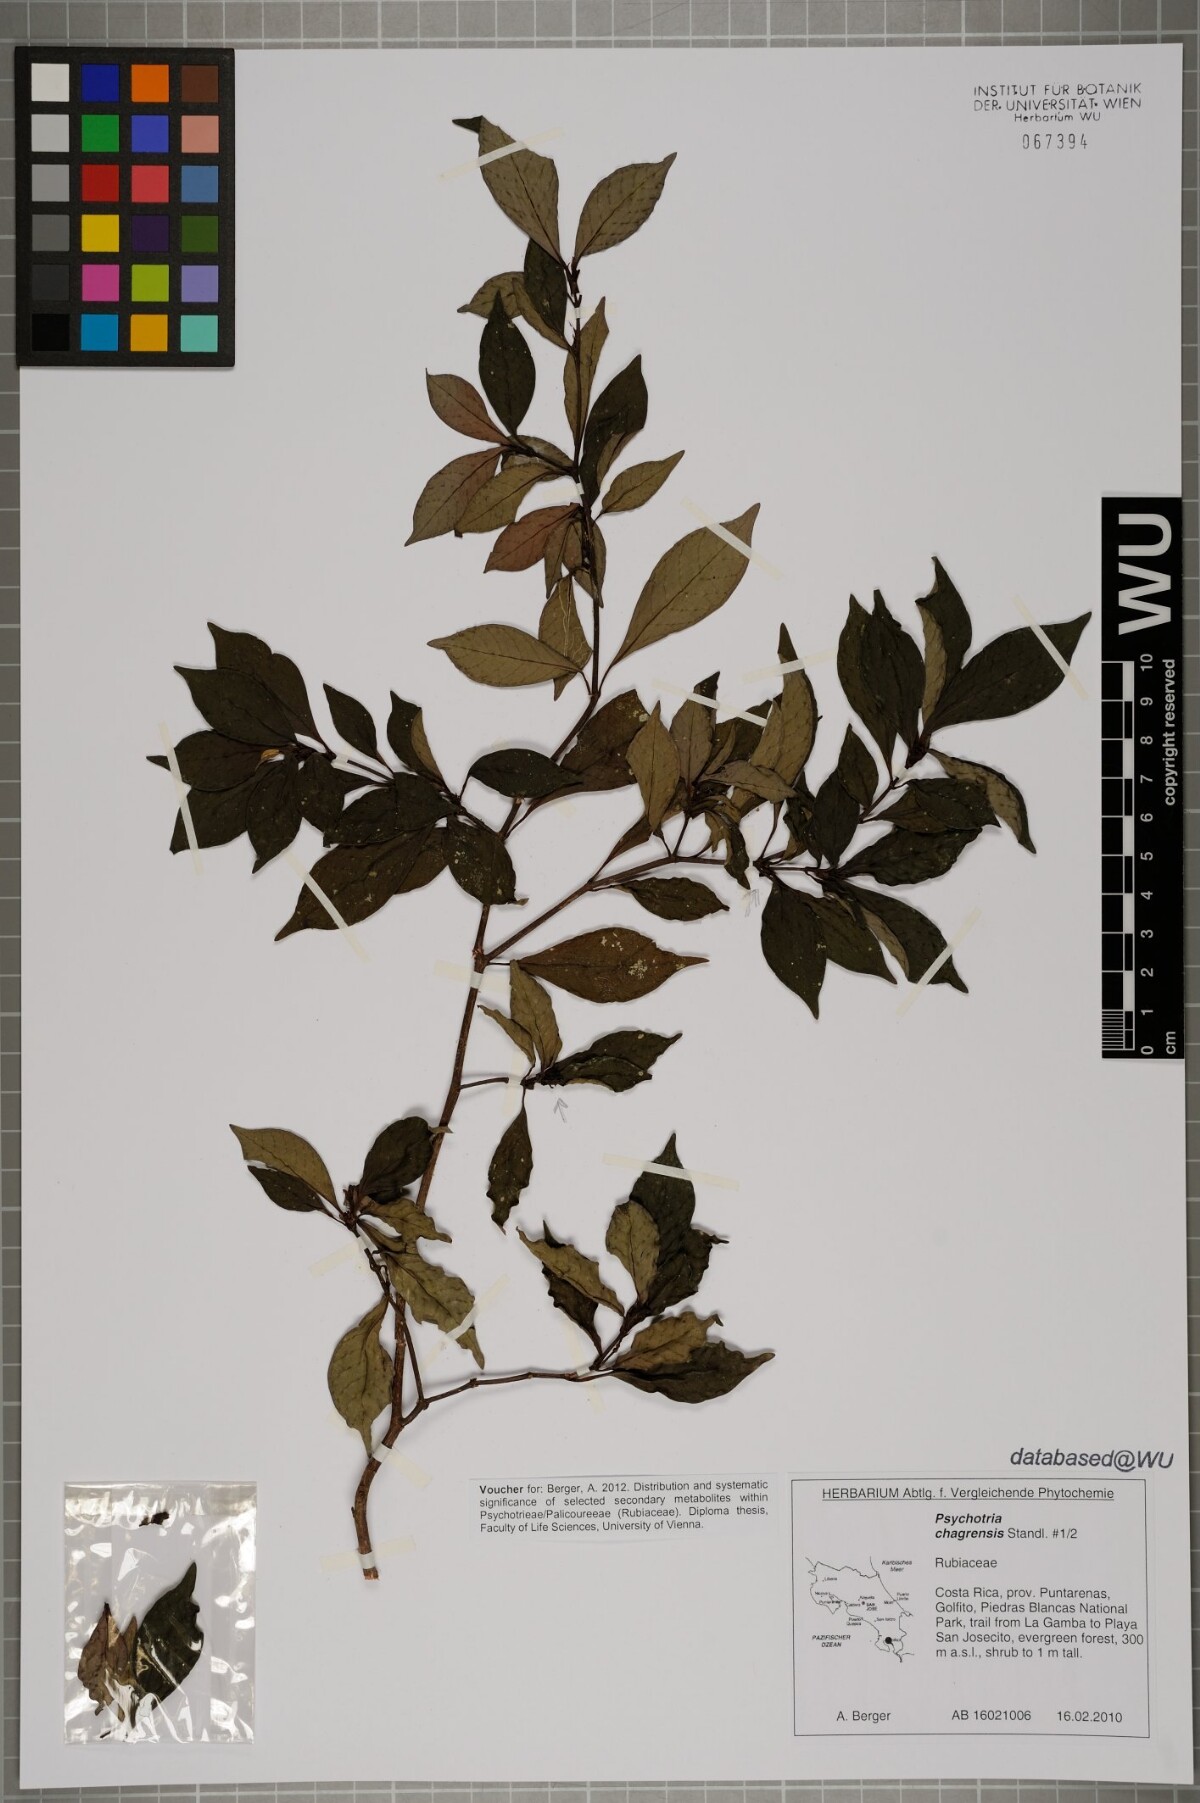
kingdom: Plantae
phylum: Tracheophyta
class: Magnoliopsida
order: Gentianales
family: Rubiaceae
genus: Psychotria
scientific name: Psychotria chagrensis
